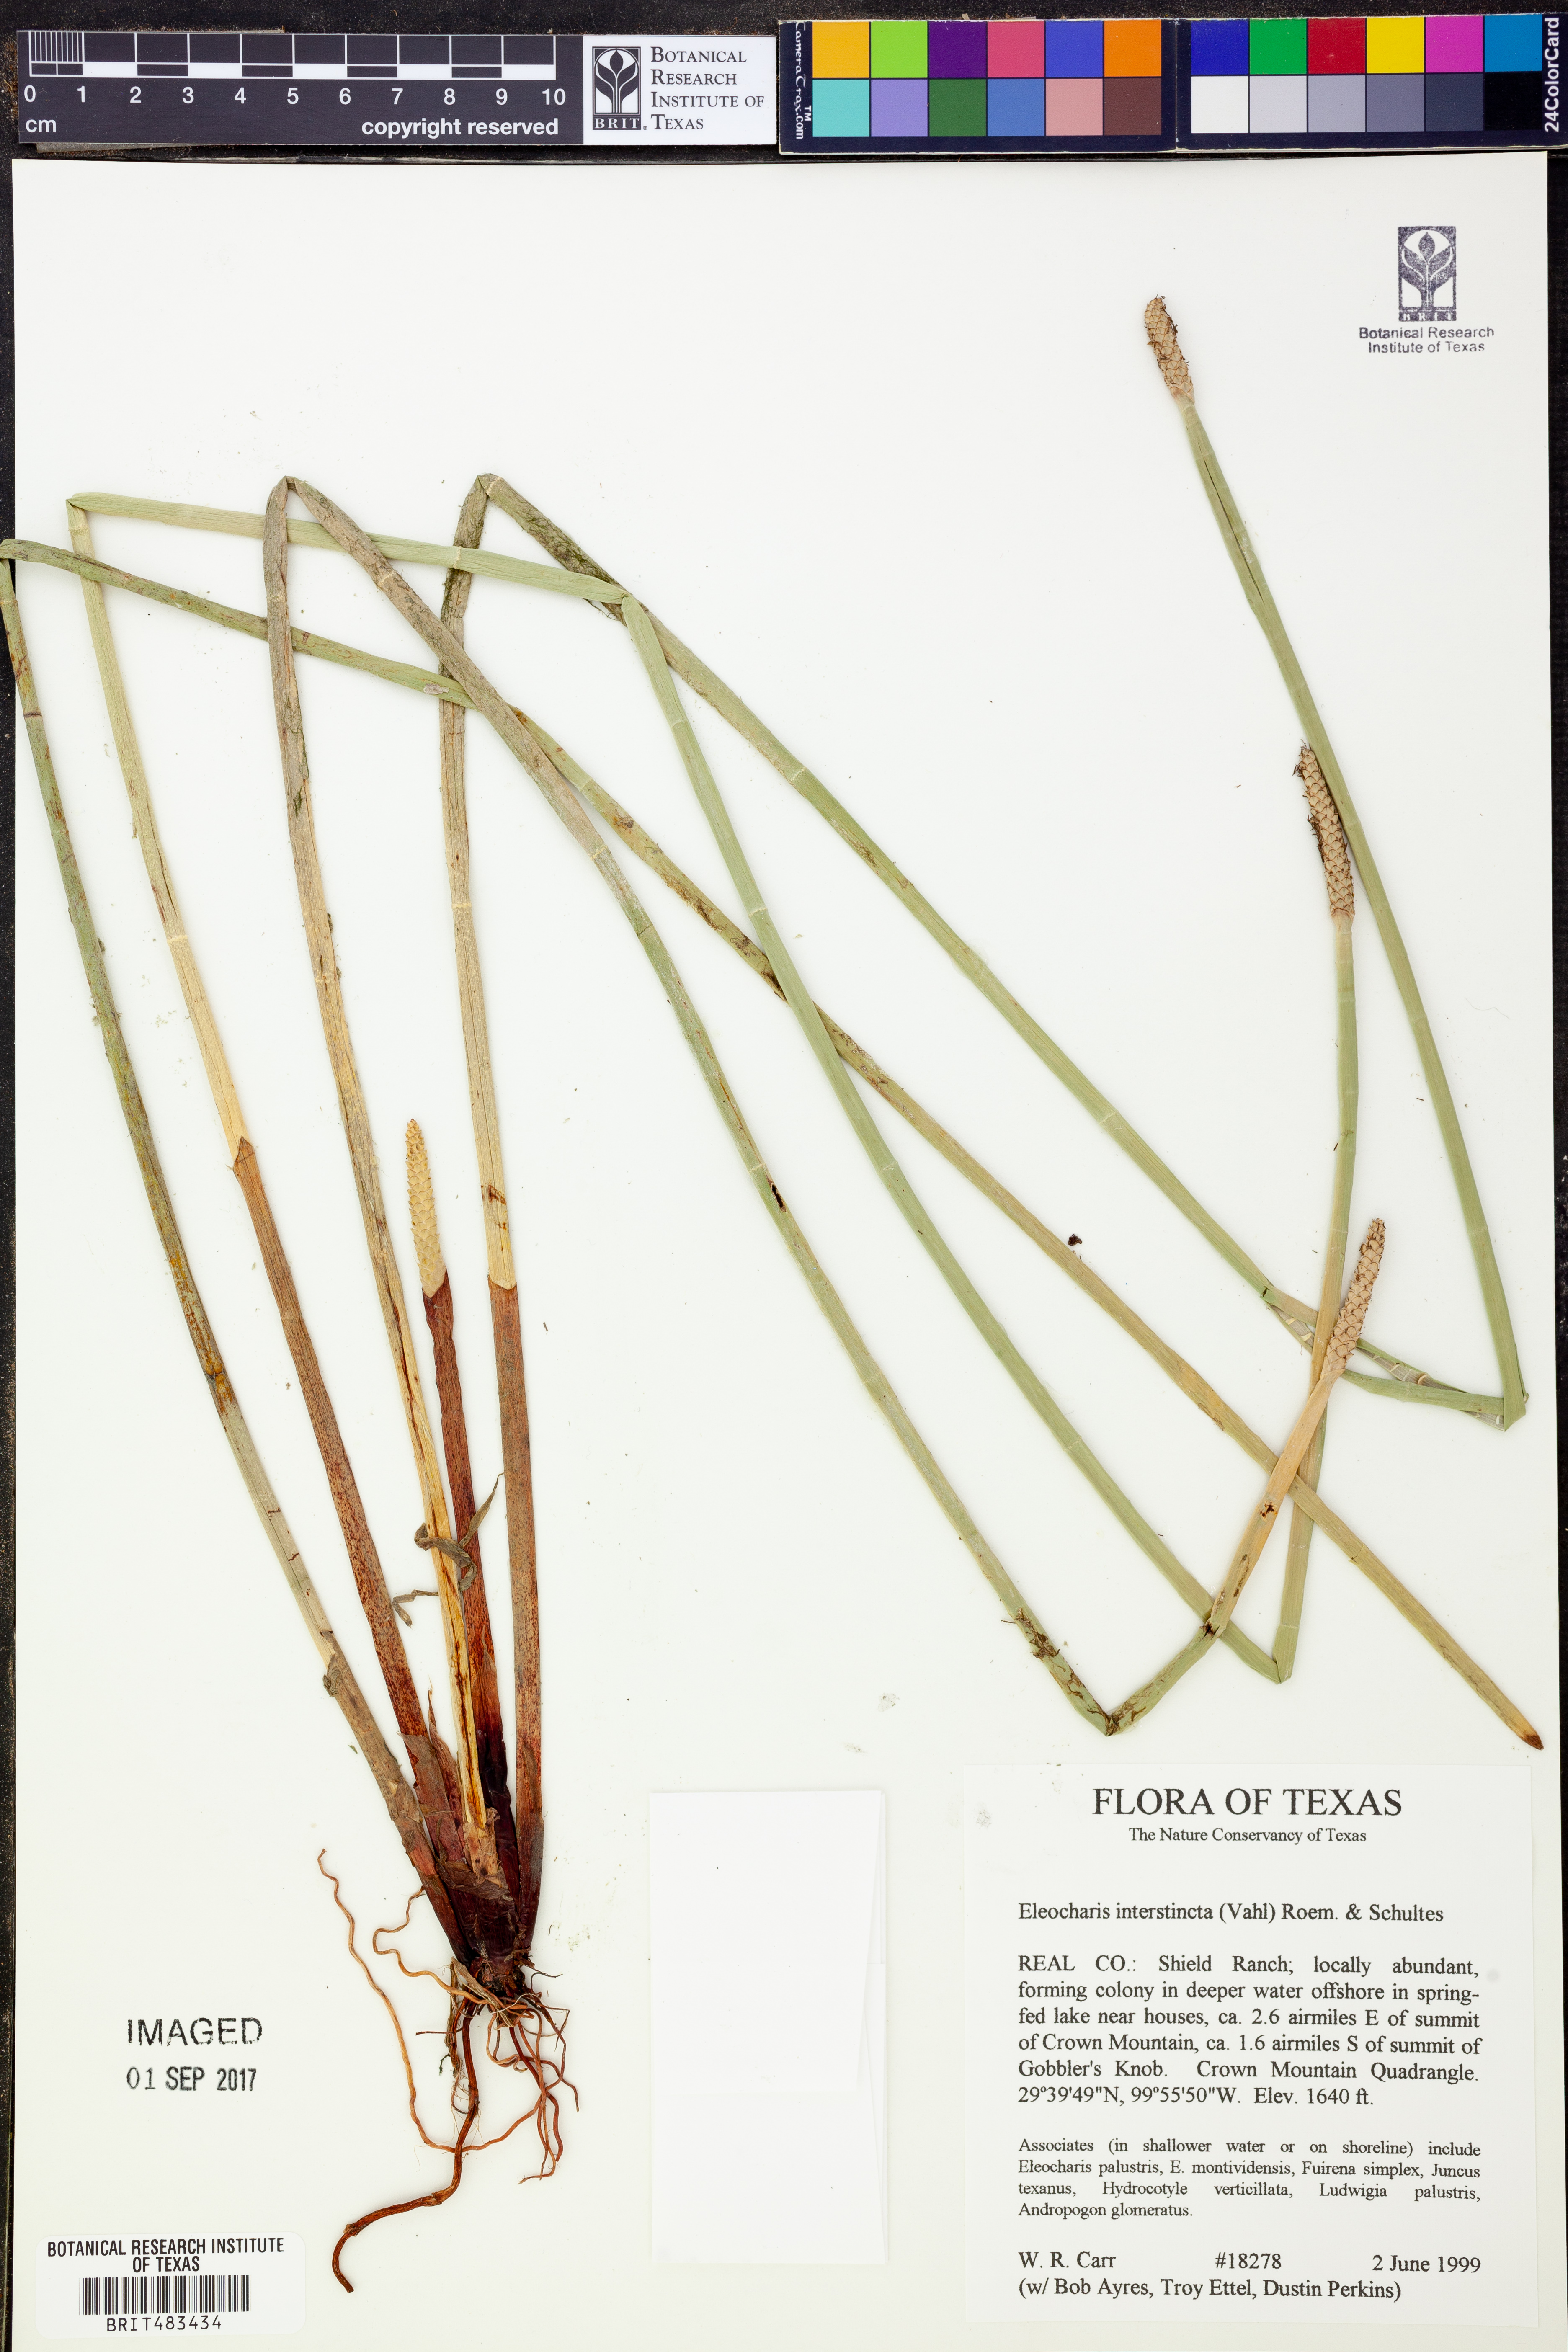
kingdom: Plantae
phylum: Tracheophyta
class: Liliopsida
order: Poales
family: Cyperaceae
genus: Eleocharis
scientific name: Eleocharis interstincta
